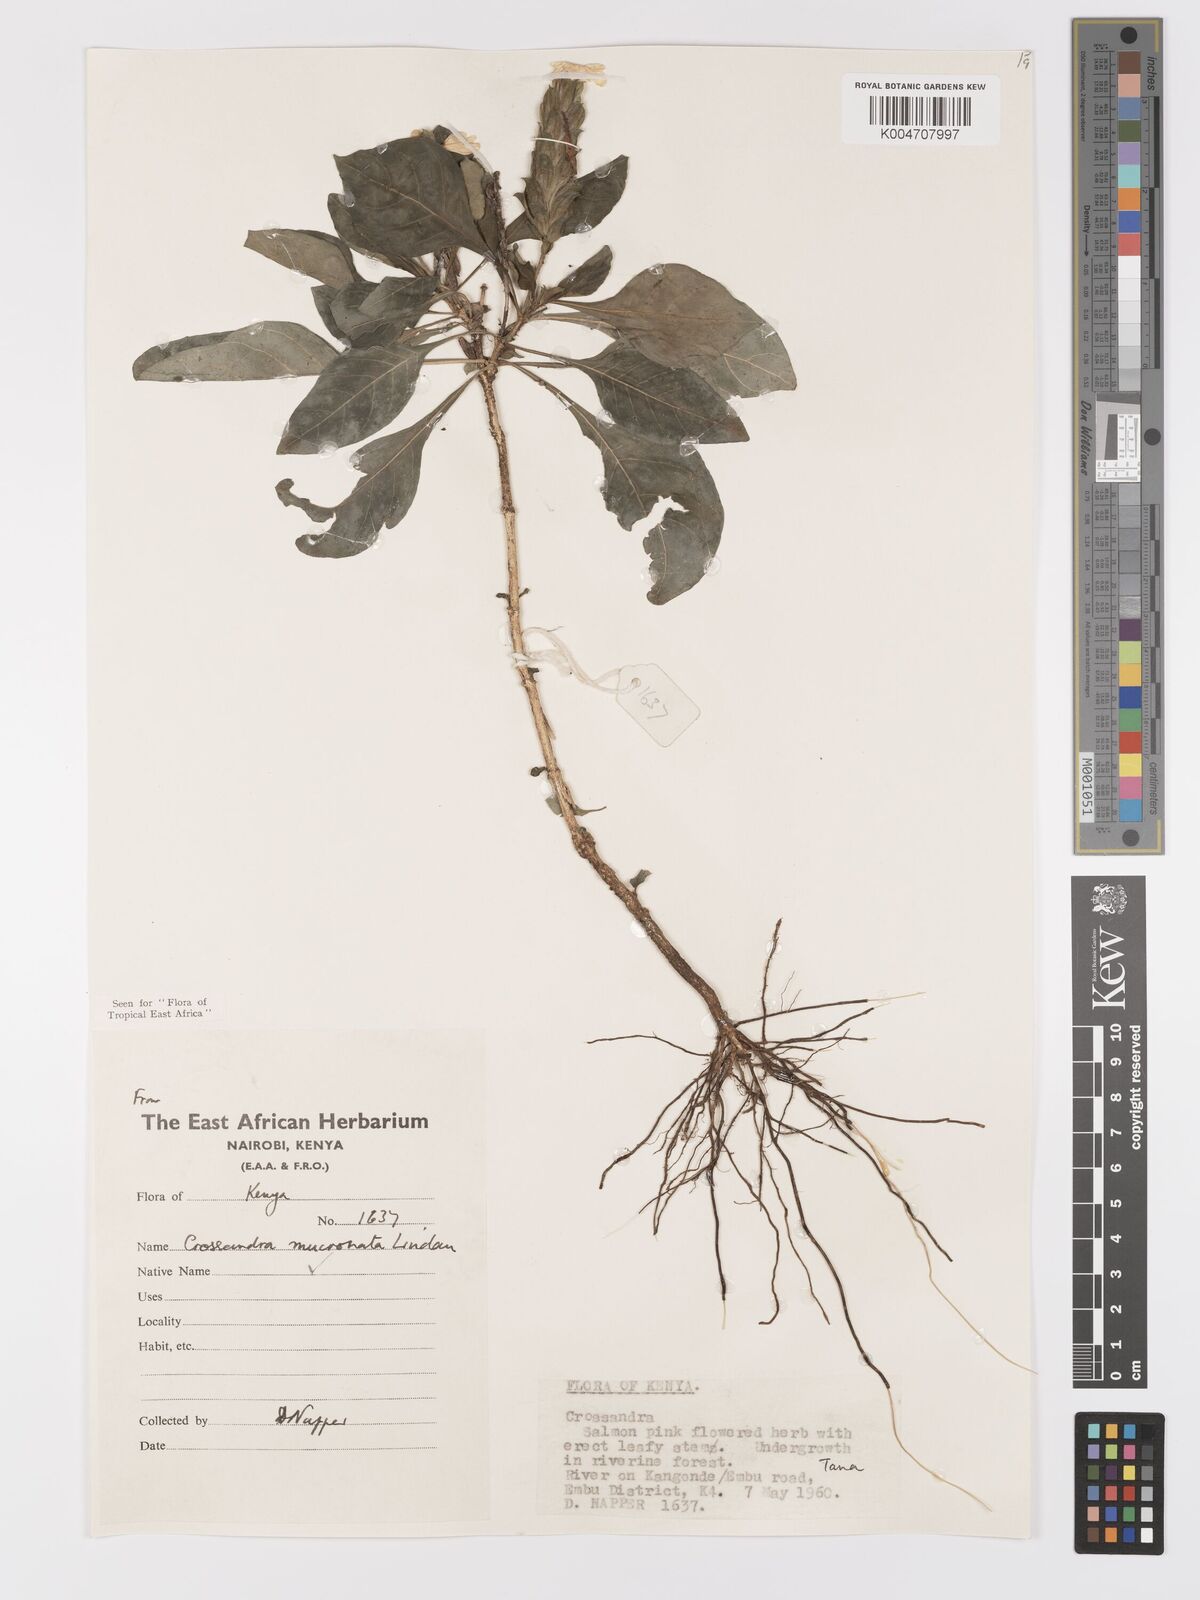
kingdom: Plantae
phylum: Tracheophyta
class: Magnoliopsida
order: Lamiales
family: Acanthaceae
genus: Crossandra
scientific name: Crossandra mucronata
